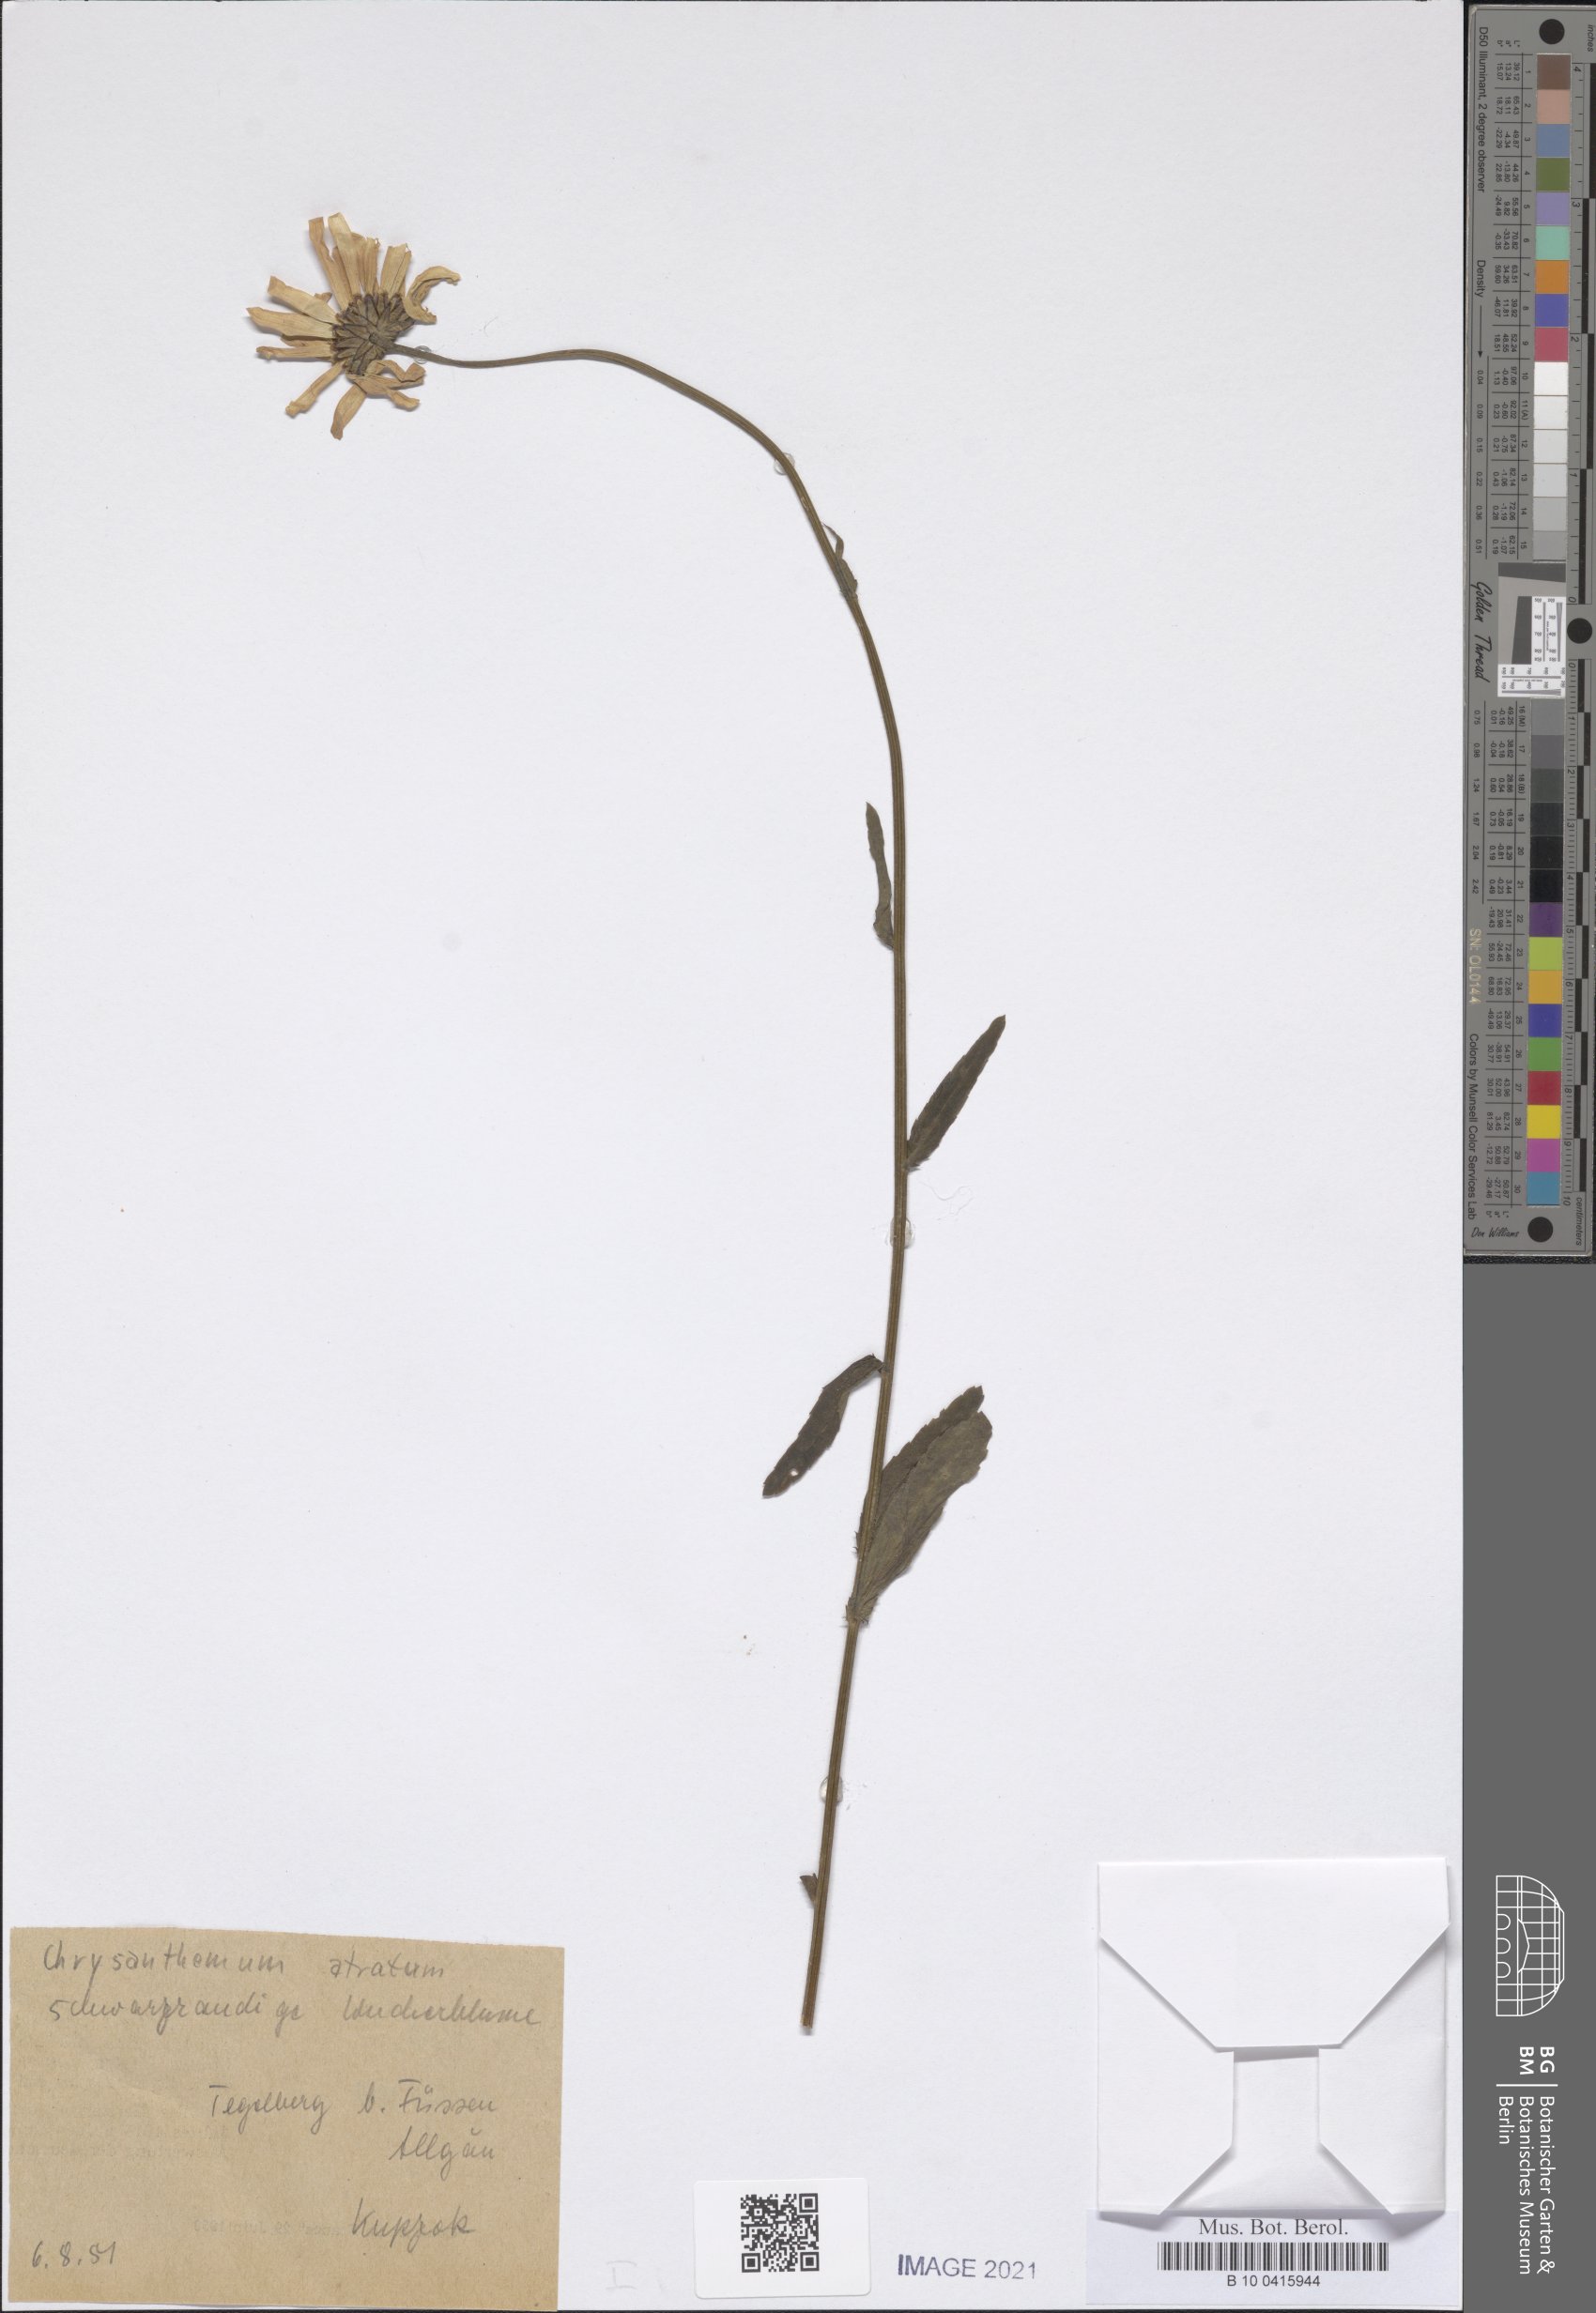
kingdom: Plantae
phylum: Tracheophyta
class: Magnoliopsida
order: Asterales
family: Asteraceae
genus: Leucanthemum
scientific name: Leucanthemum adustum
